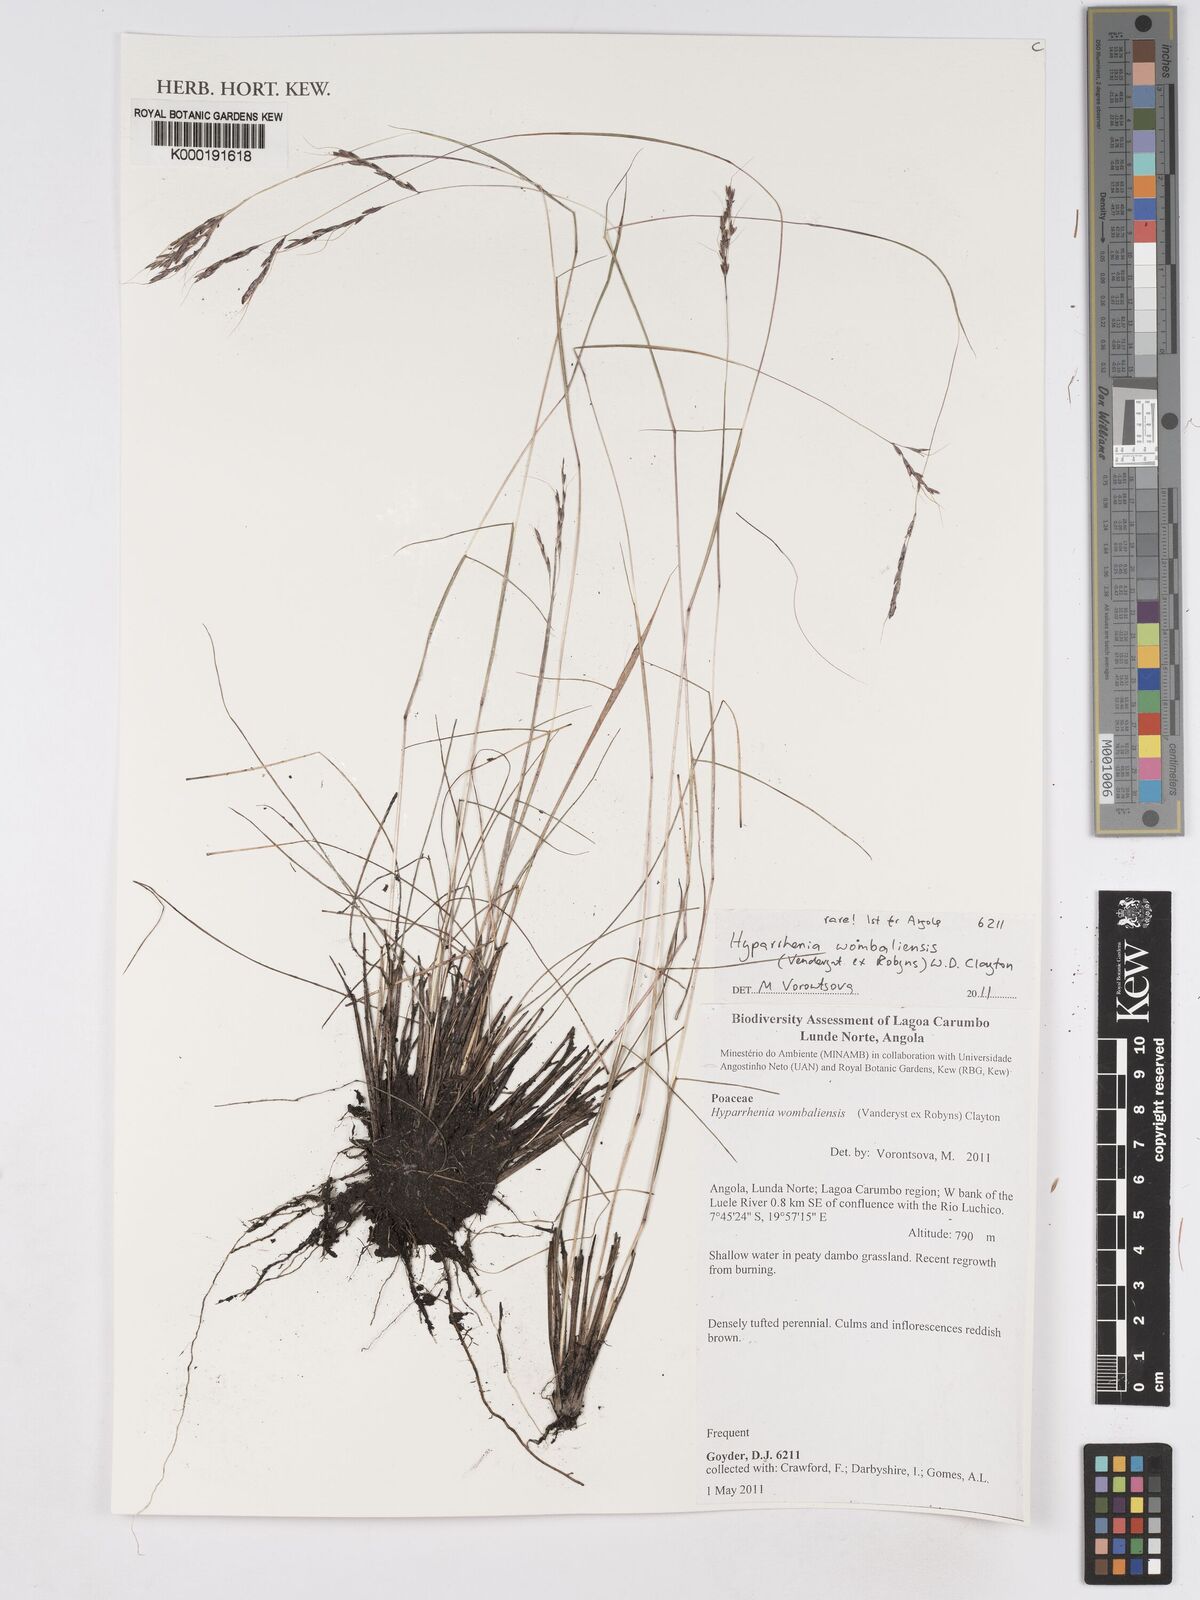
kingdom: Plantae
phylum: Tracheophyta
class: Liliopsida
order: Poales
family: Poaceae
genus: Hyparrhenia
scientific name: Hyparrhenia wombaliensis
